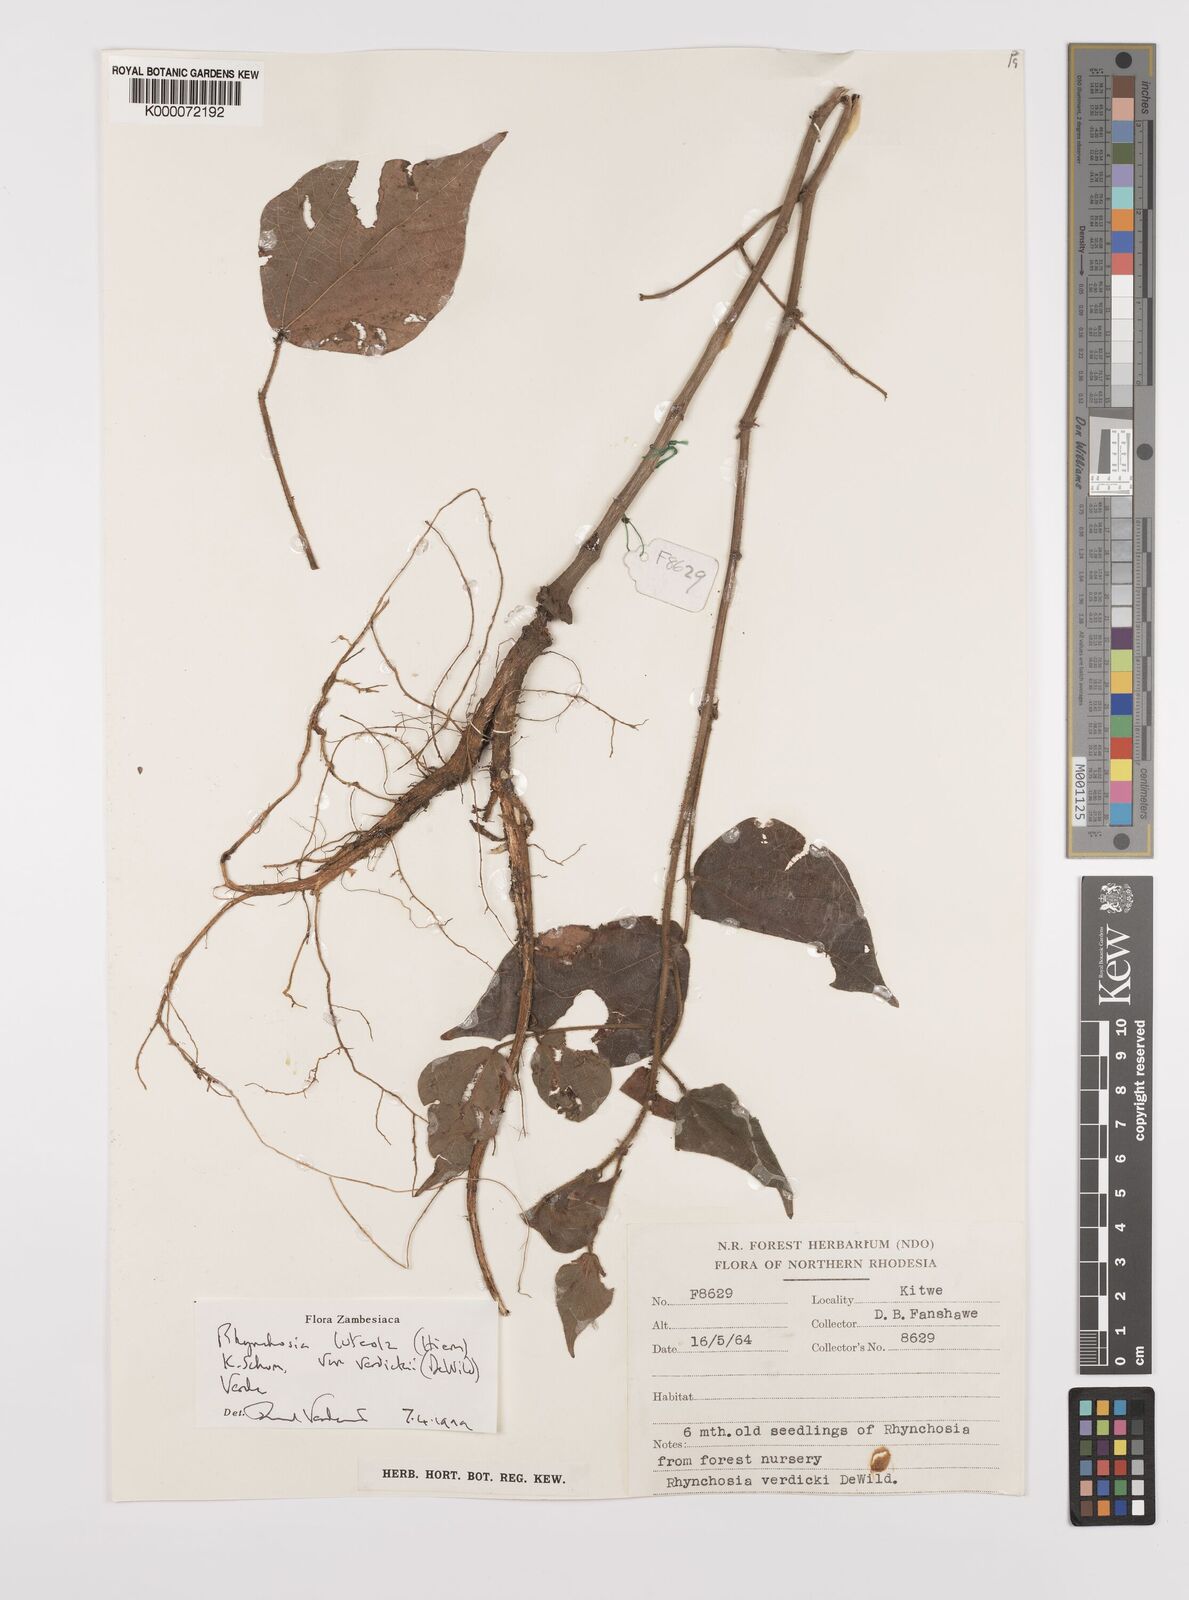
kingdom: Plantae
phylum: Tracheophyta
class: Magnoliopsida
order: Fabales
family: Fabaceae
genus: Rhynchosia
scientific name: Rhynchosia luteola
